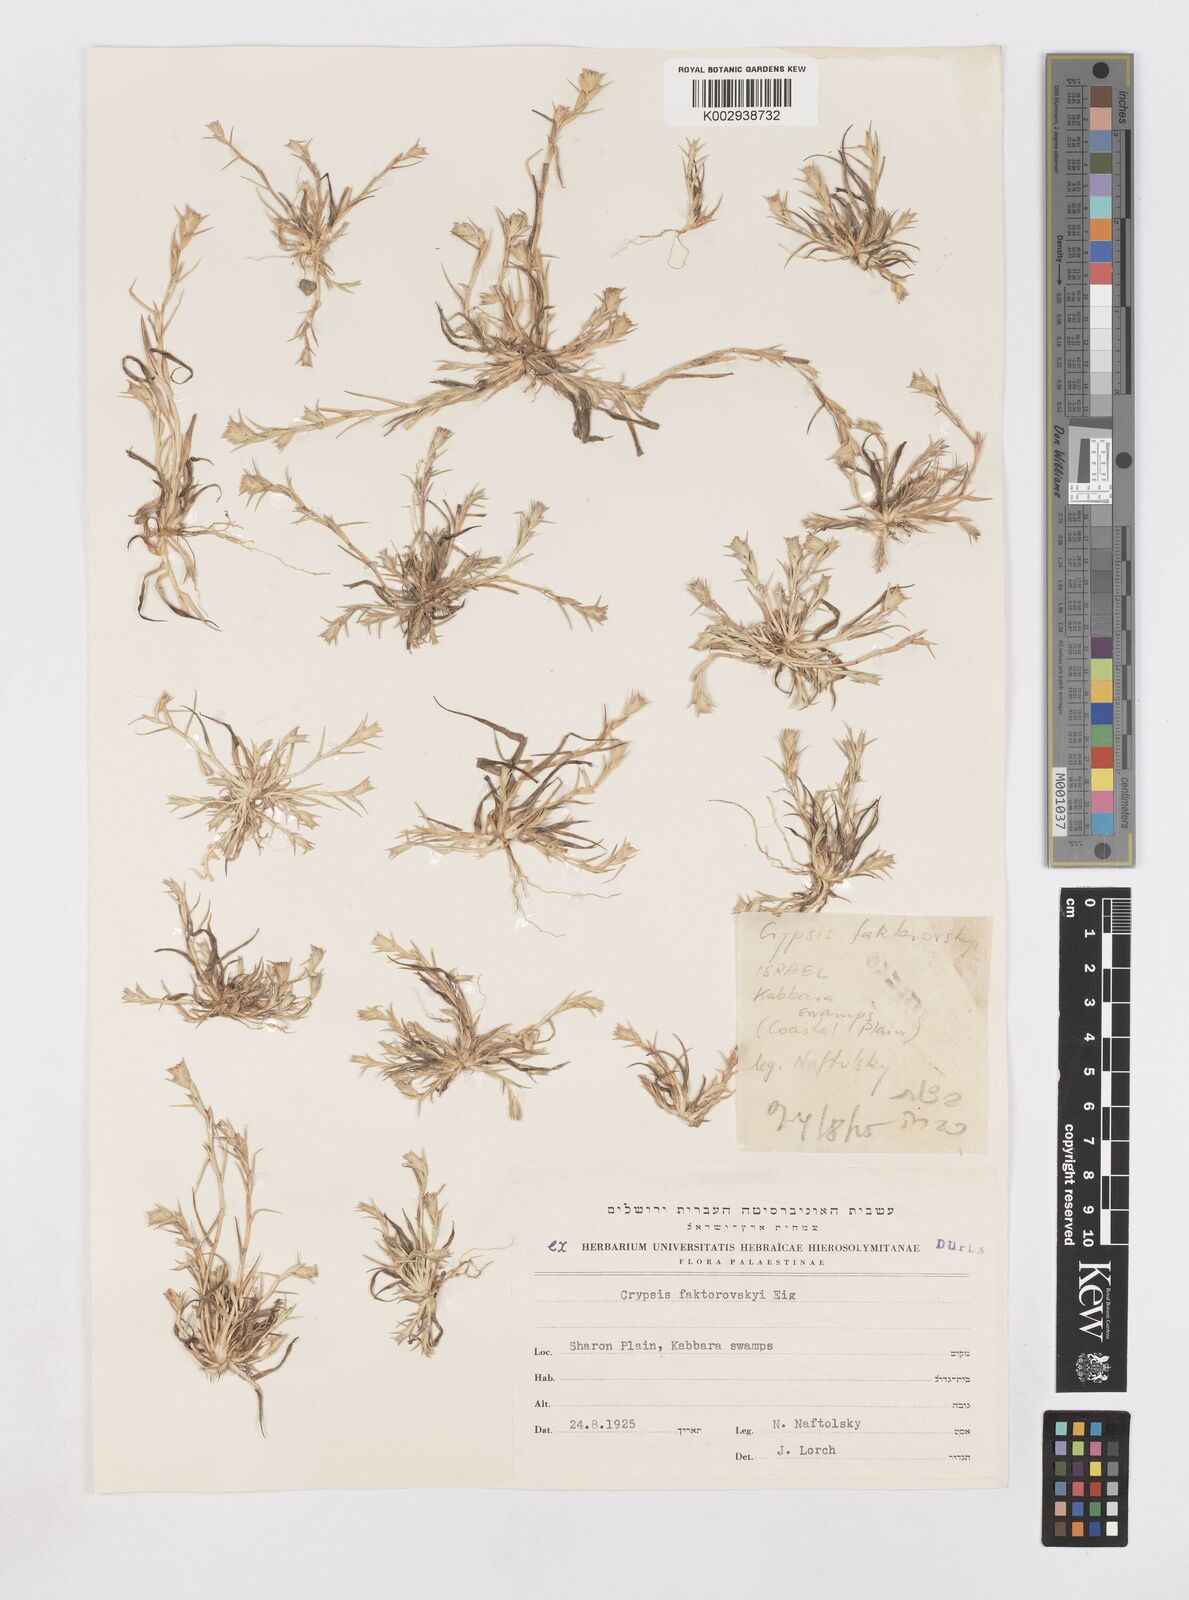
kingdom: Plantae
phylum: Tracheophyta
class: Liliopsida
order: Poales
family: Poaceae
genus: Sporobolus
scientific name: Sporobolus factorovskyi
